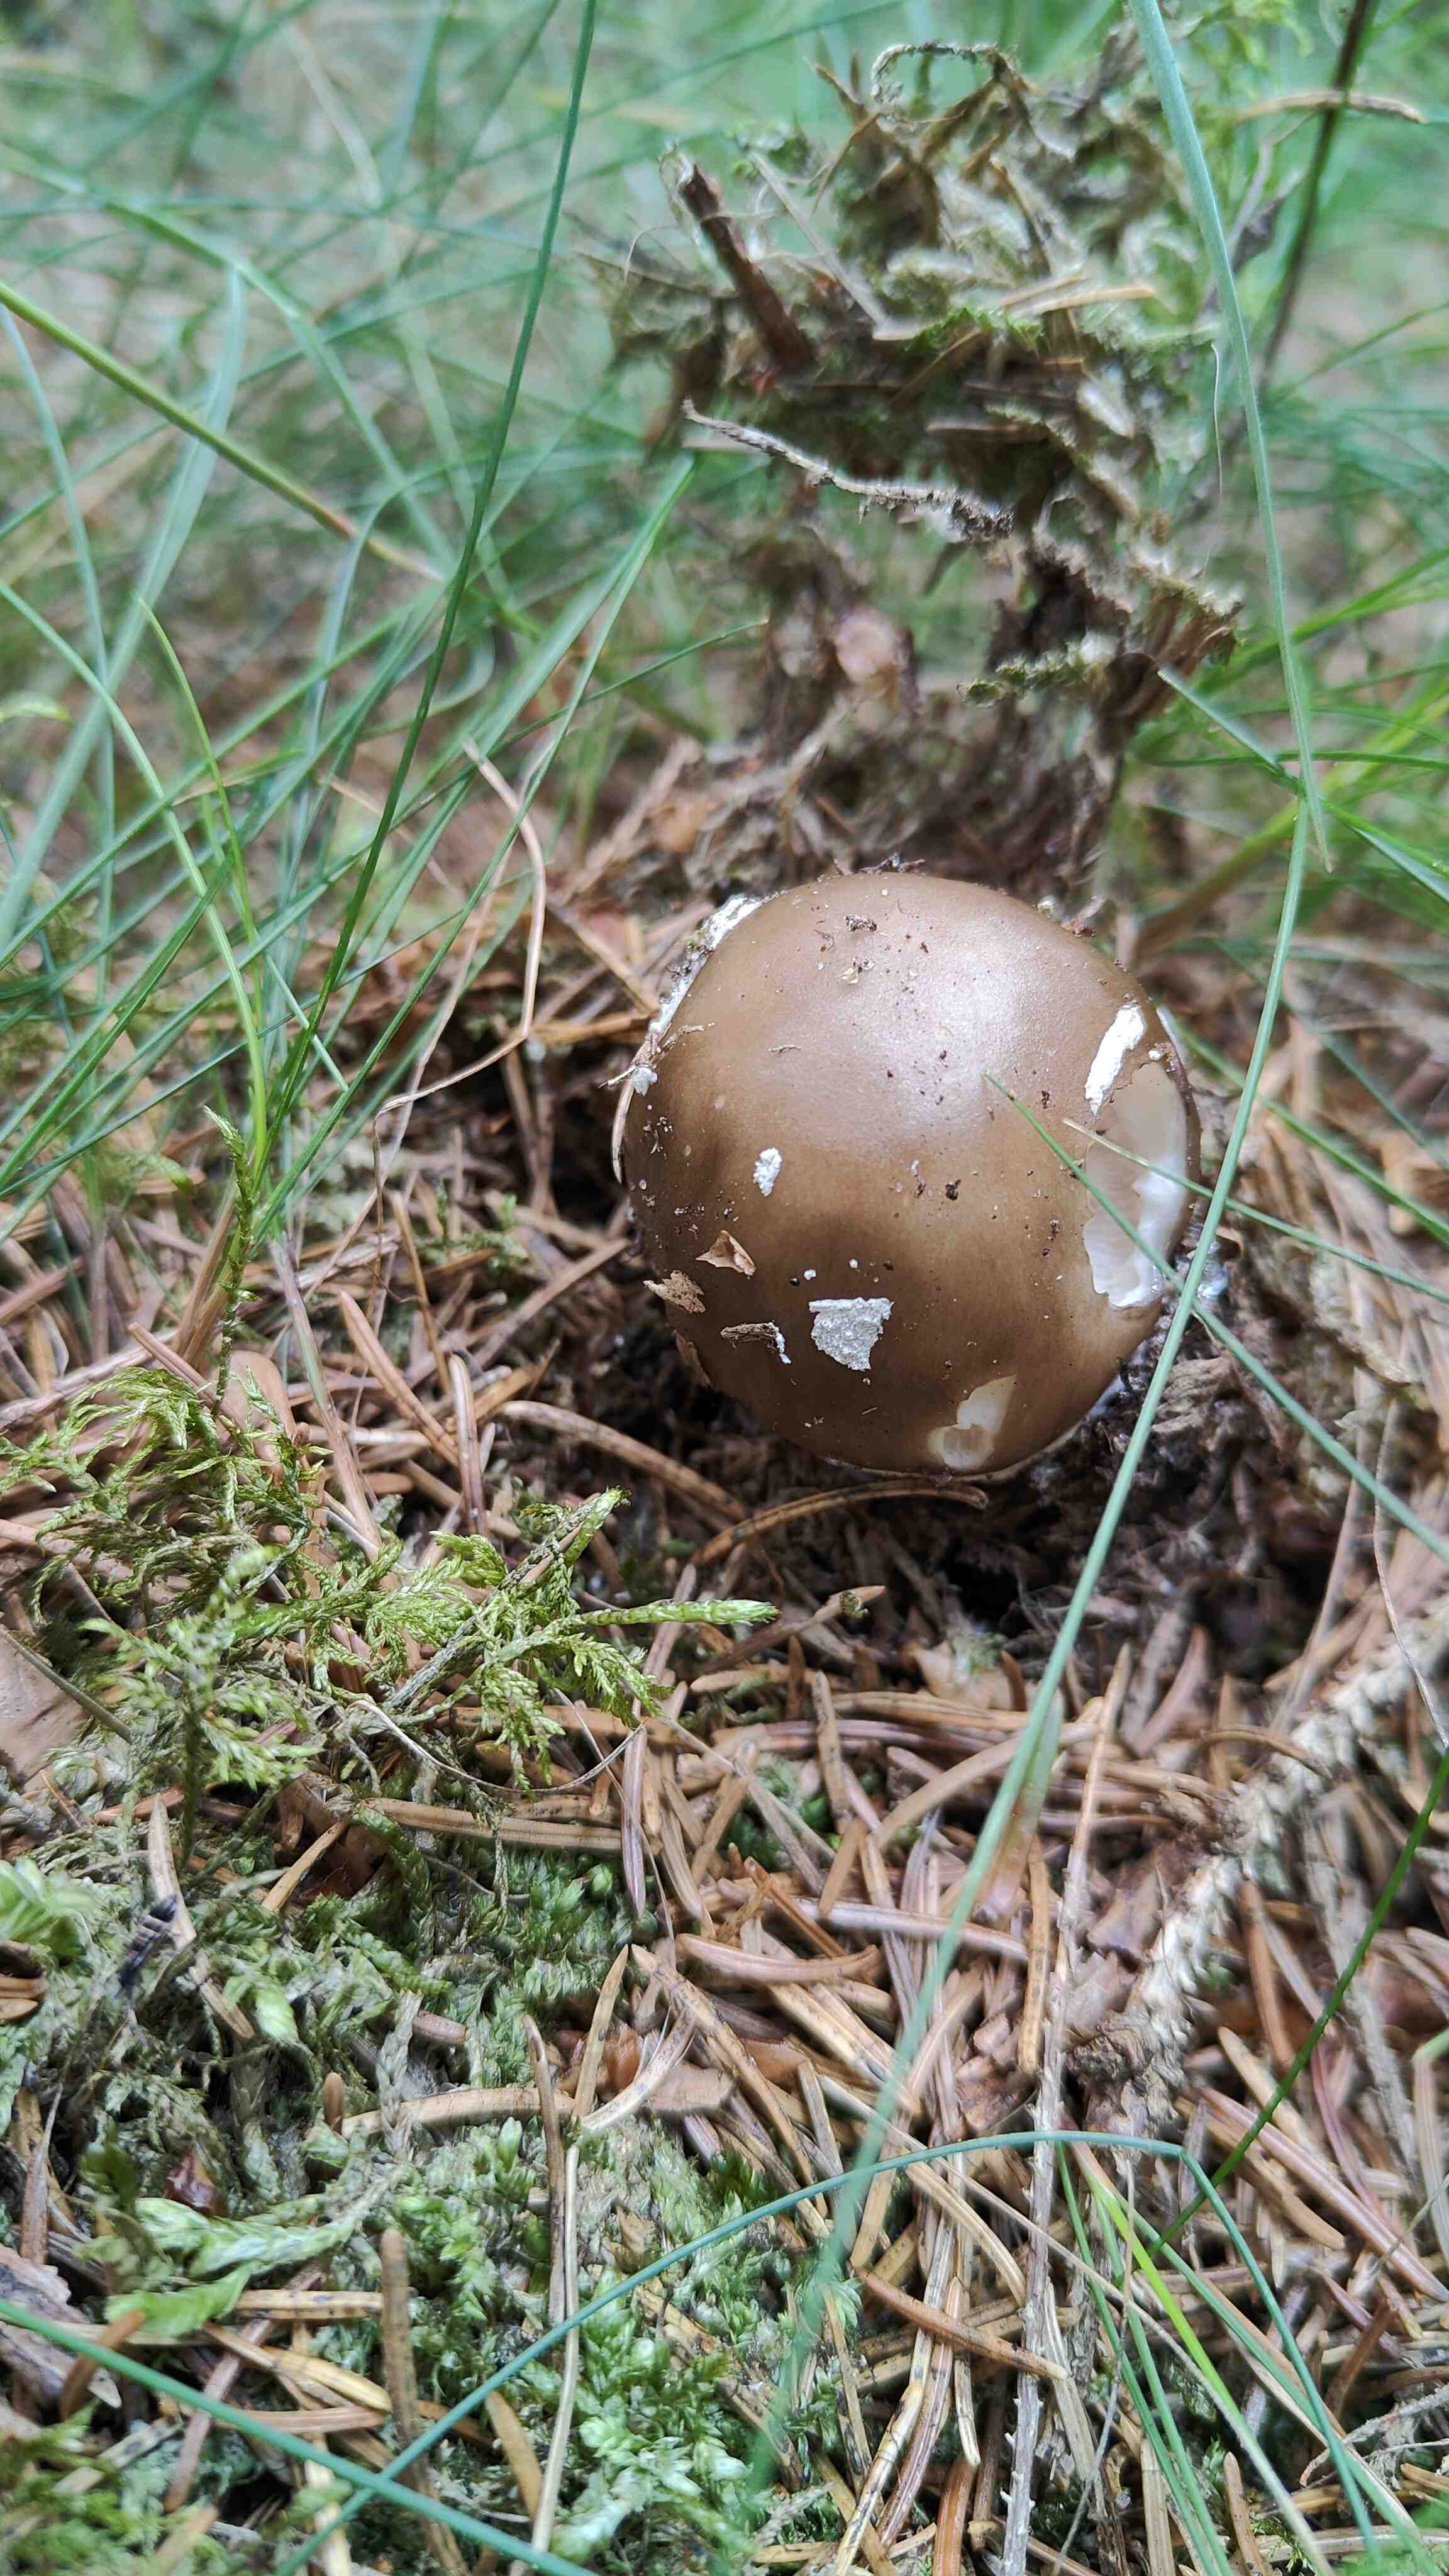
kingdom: Fungi
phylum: Basidiomycota
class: Agaricomycetes
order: Agaricales
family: Amanitaceae
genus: Amanita
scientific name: Amanita
